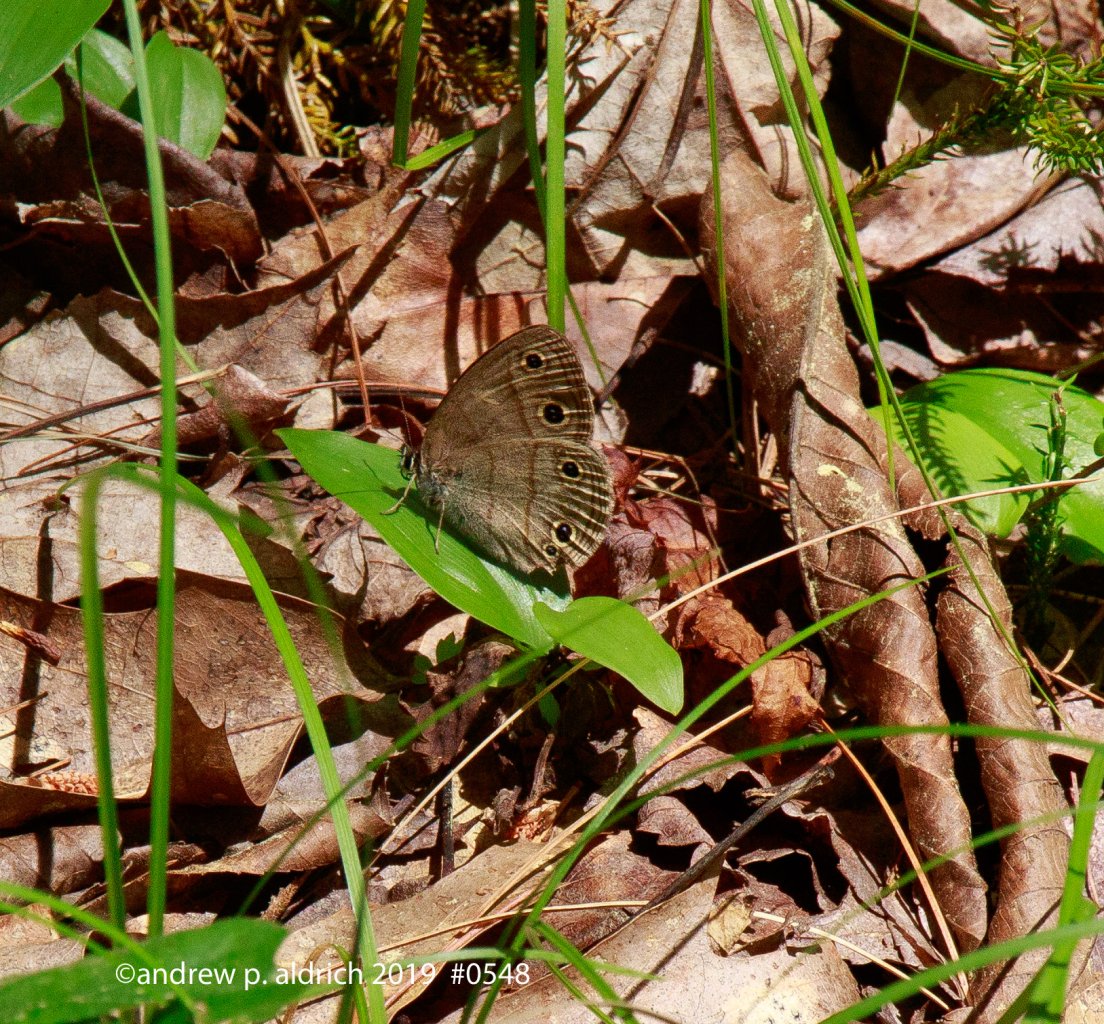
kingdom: Animalia
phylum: Arthropoda
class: Insecta
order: Lepidoptera
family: Nymphalidae
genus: Euptychia
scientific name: Euptychia cymela
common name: Little Wood Satyr
